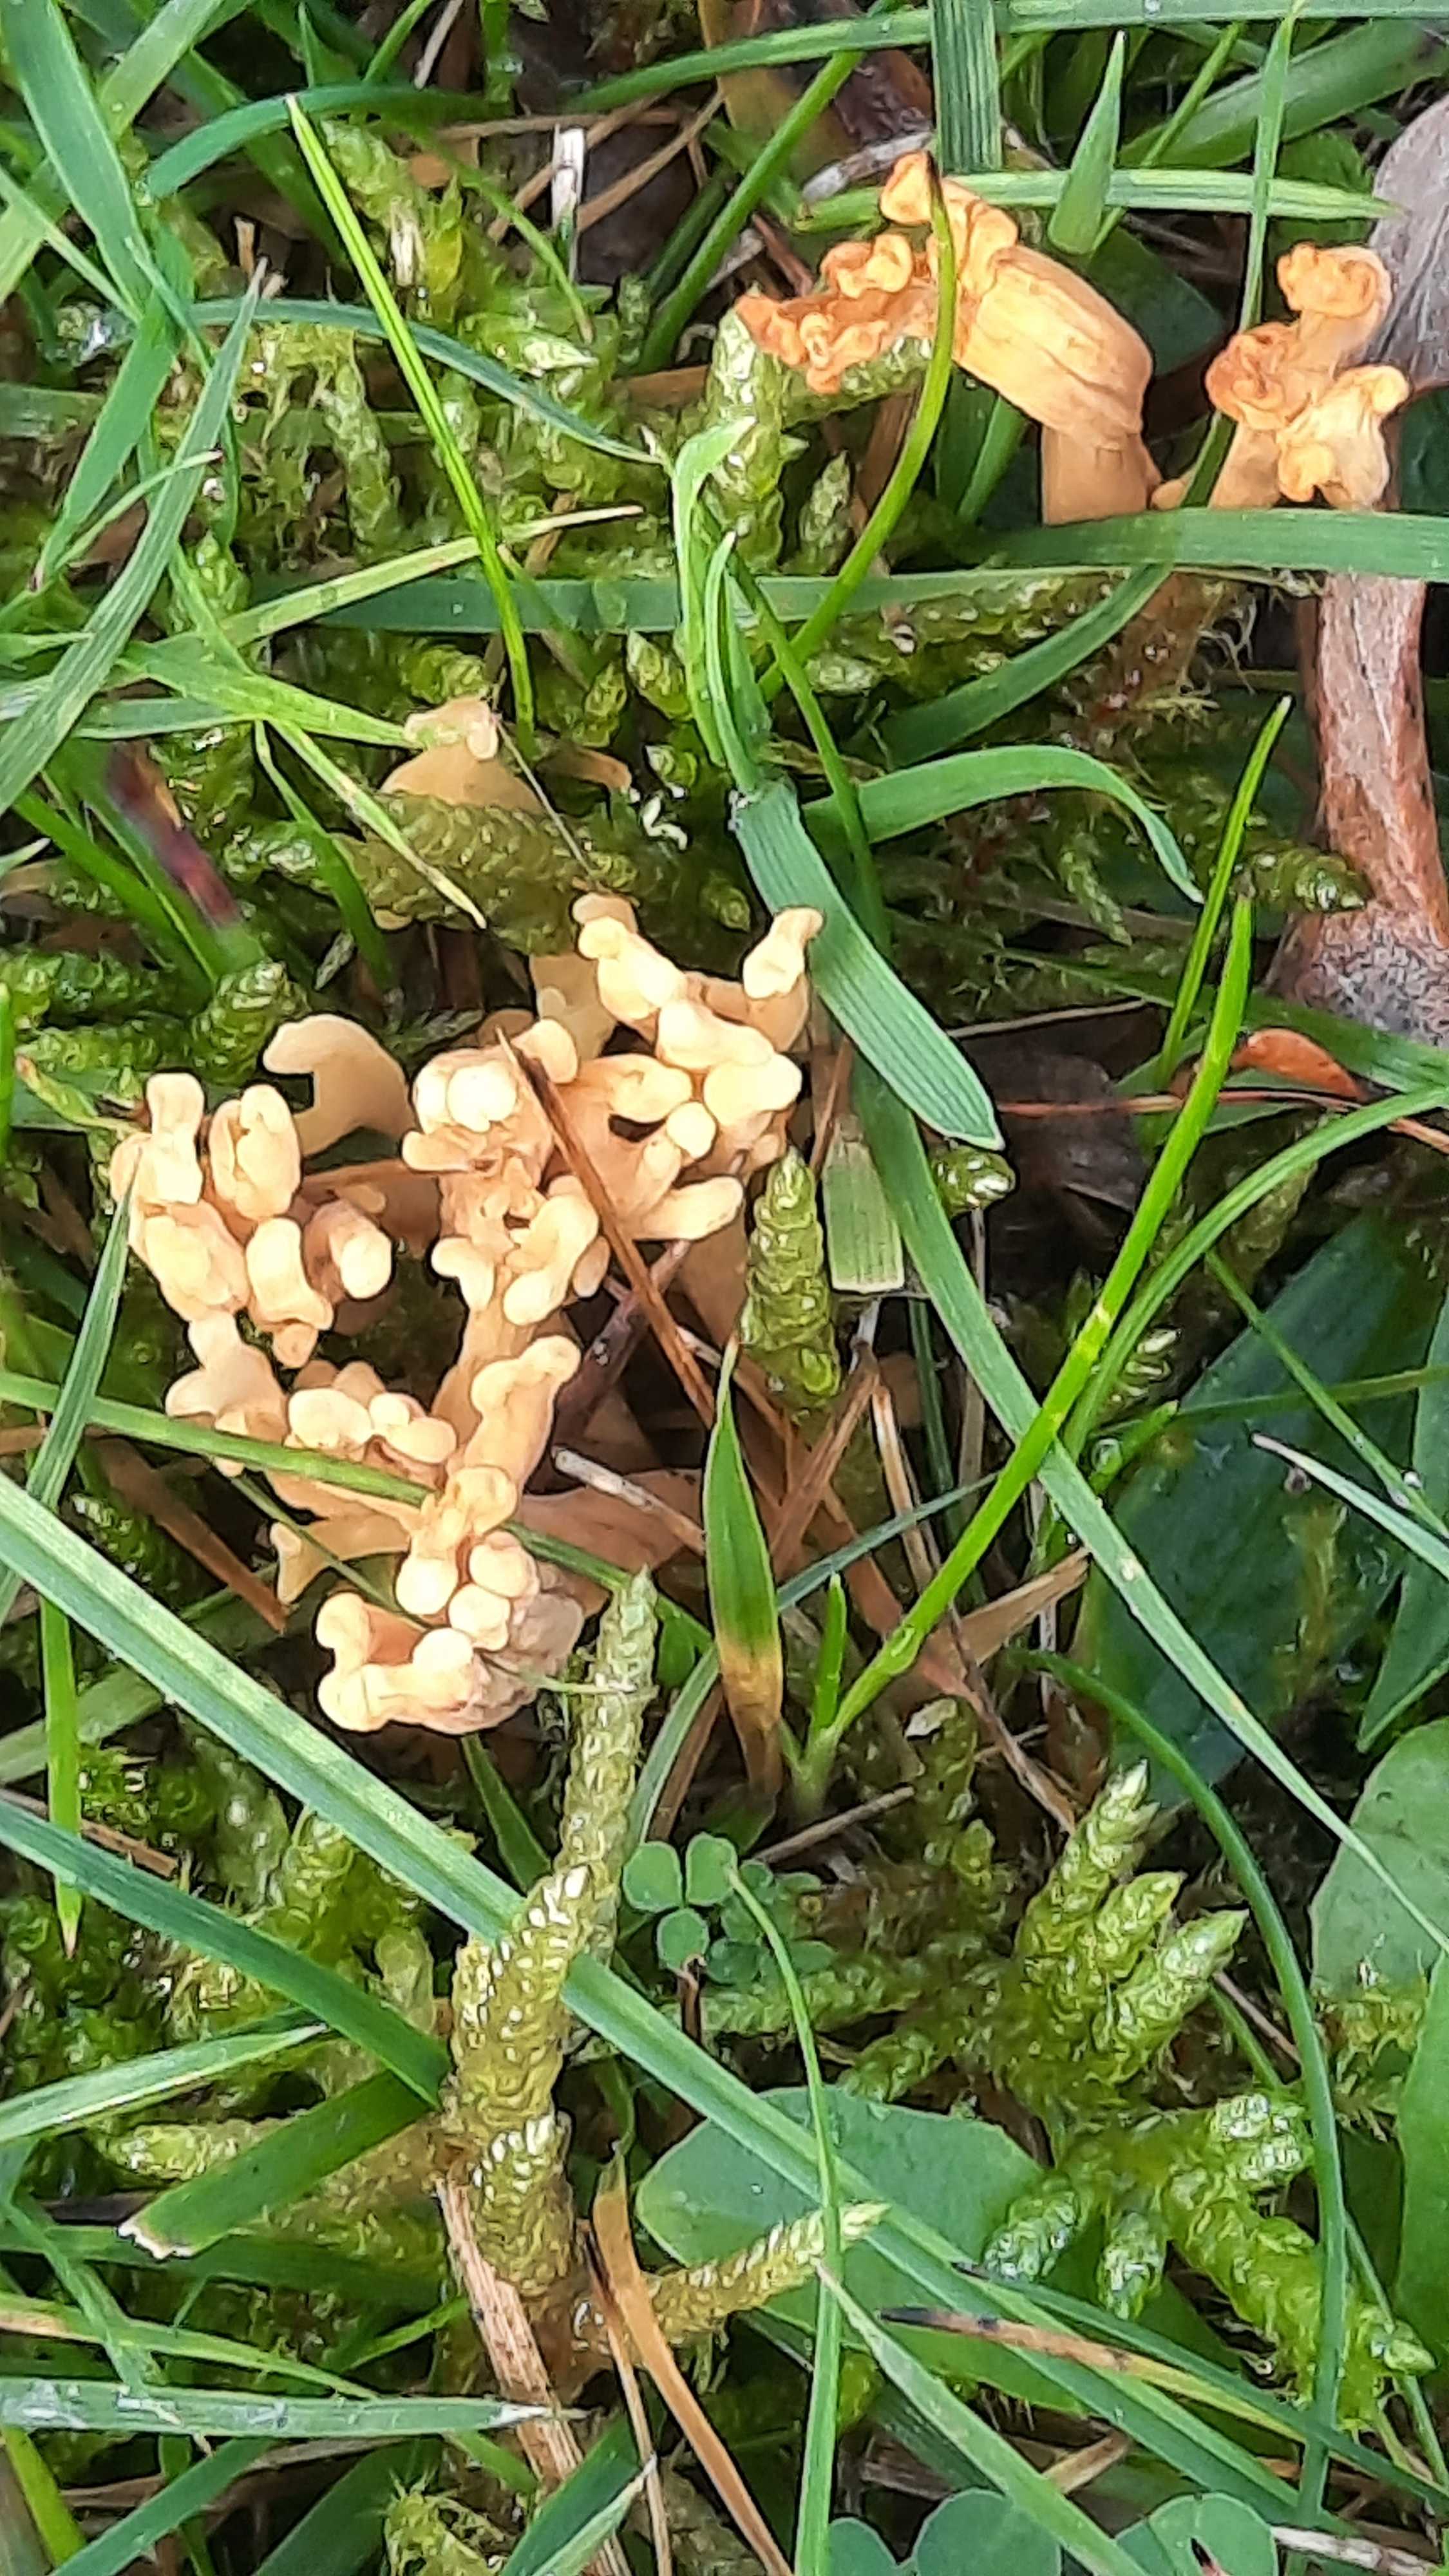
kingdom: Fungi
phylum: Basidiomycota
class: Agaricomycetes
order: Agaricales
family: Clavariaceae
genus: Clavulinopsis
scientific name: Clavulinopsis corniculata
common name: eng-køllesvamp
